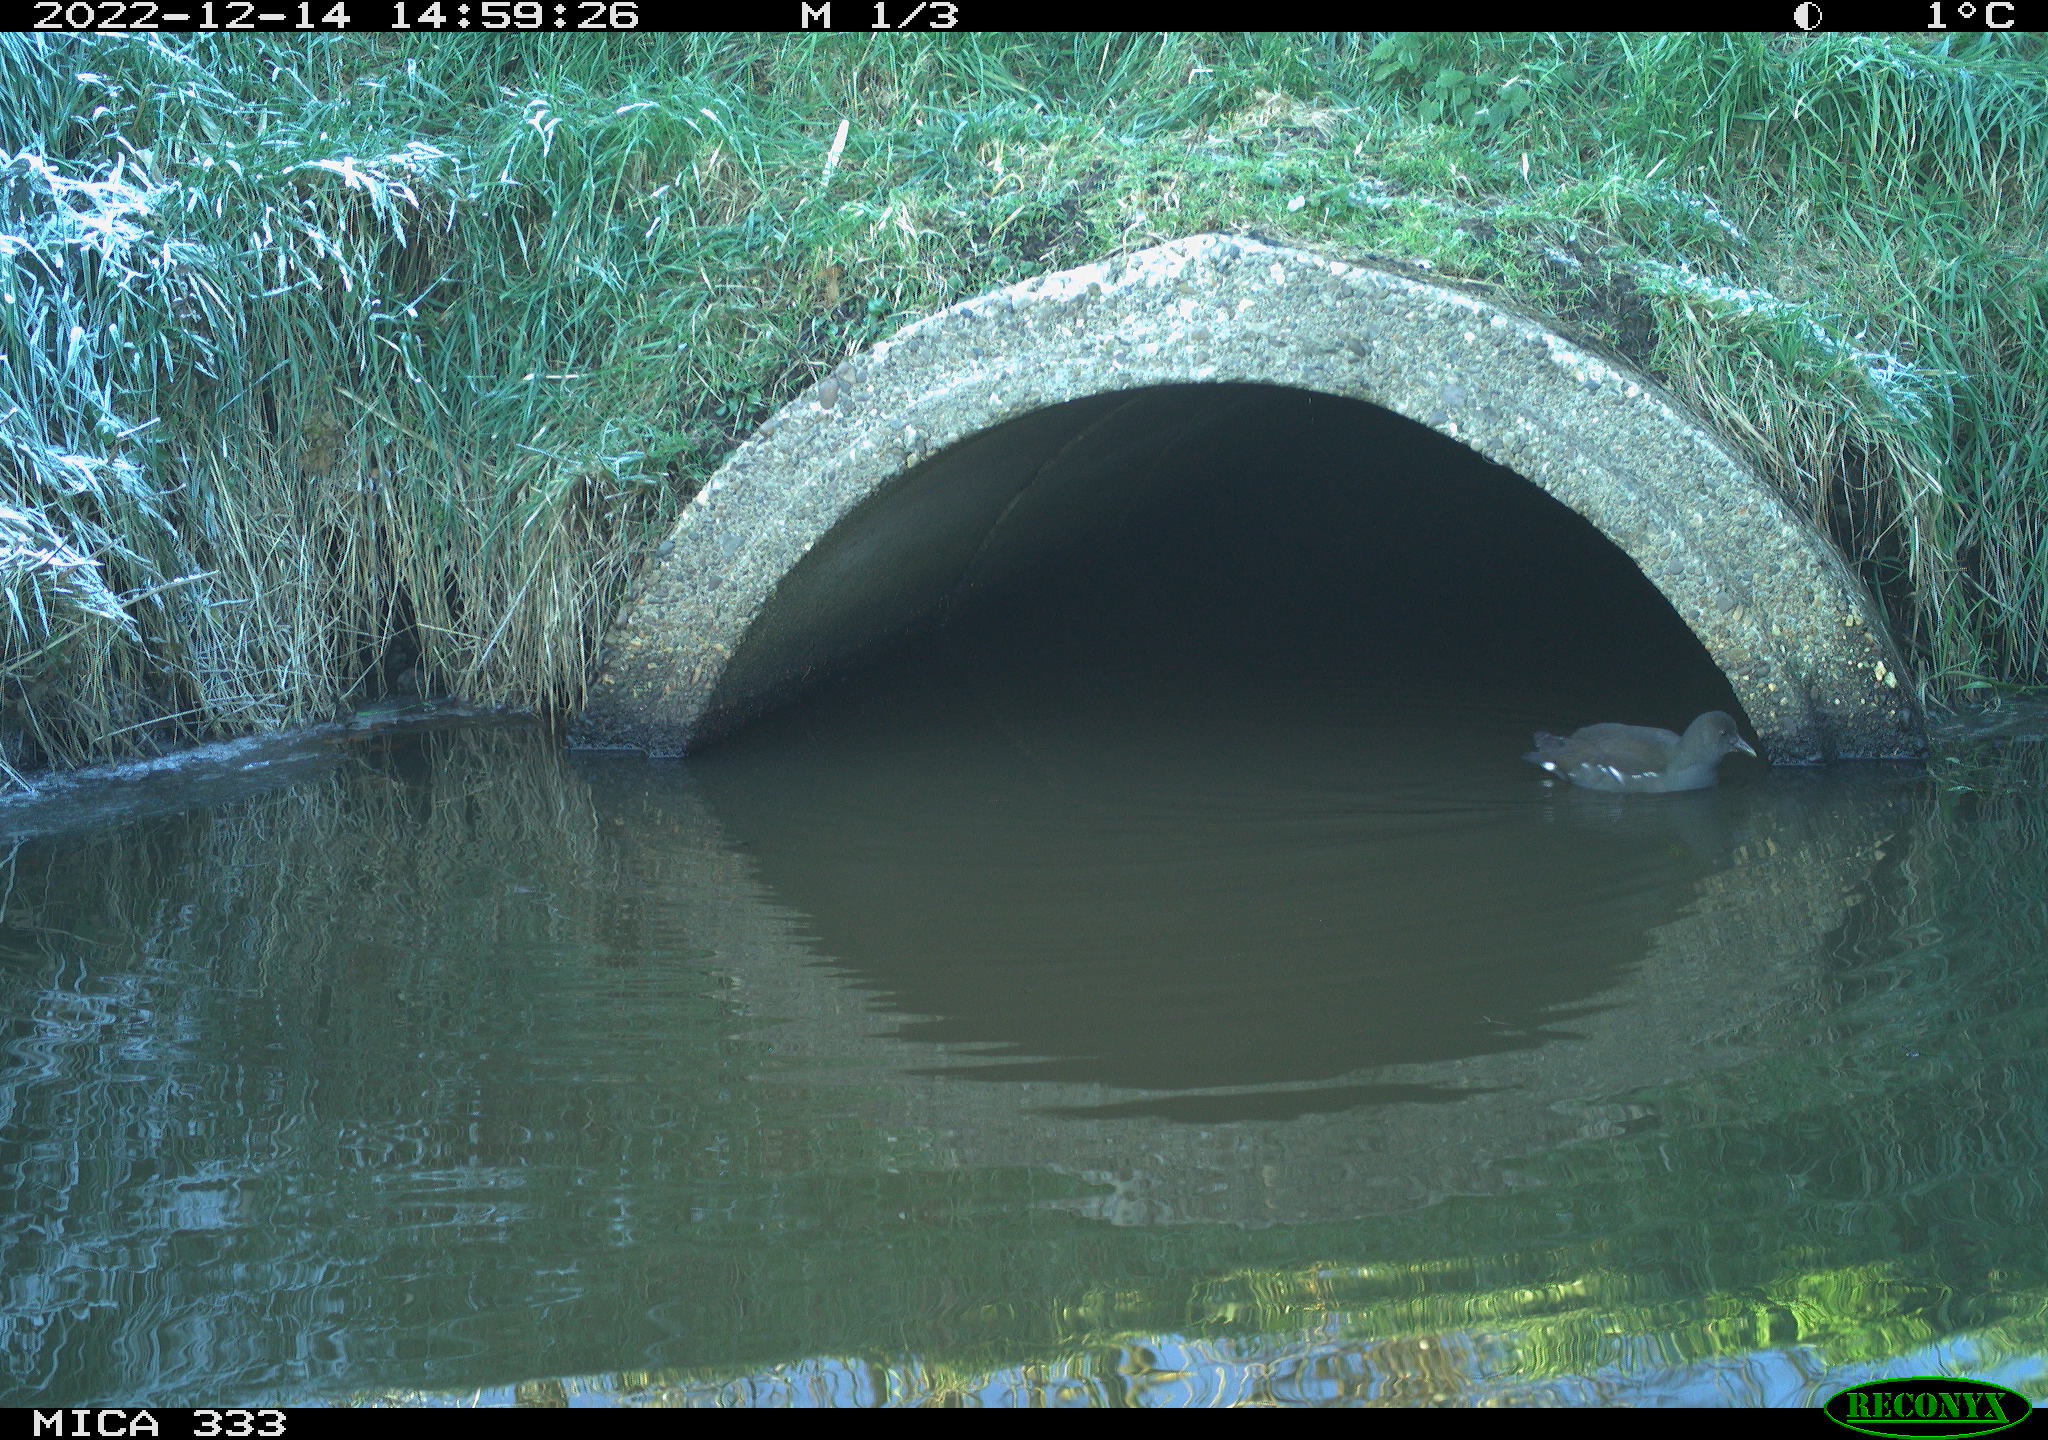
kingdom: Animalia
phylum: Chordata
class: Aves
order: Gruiformes
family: Rallidae
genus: Gallinula
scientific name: Gallinula chloropus
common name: Common moorhen
